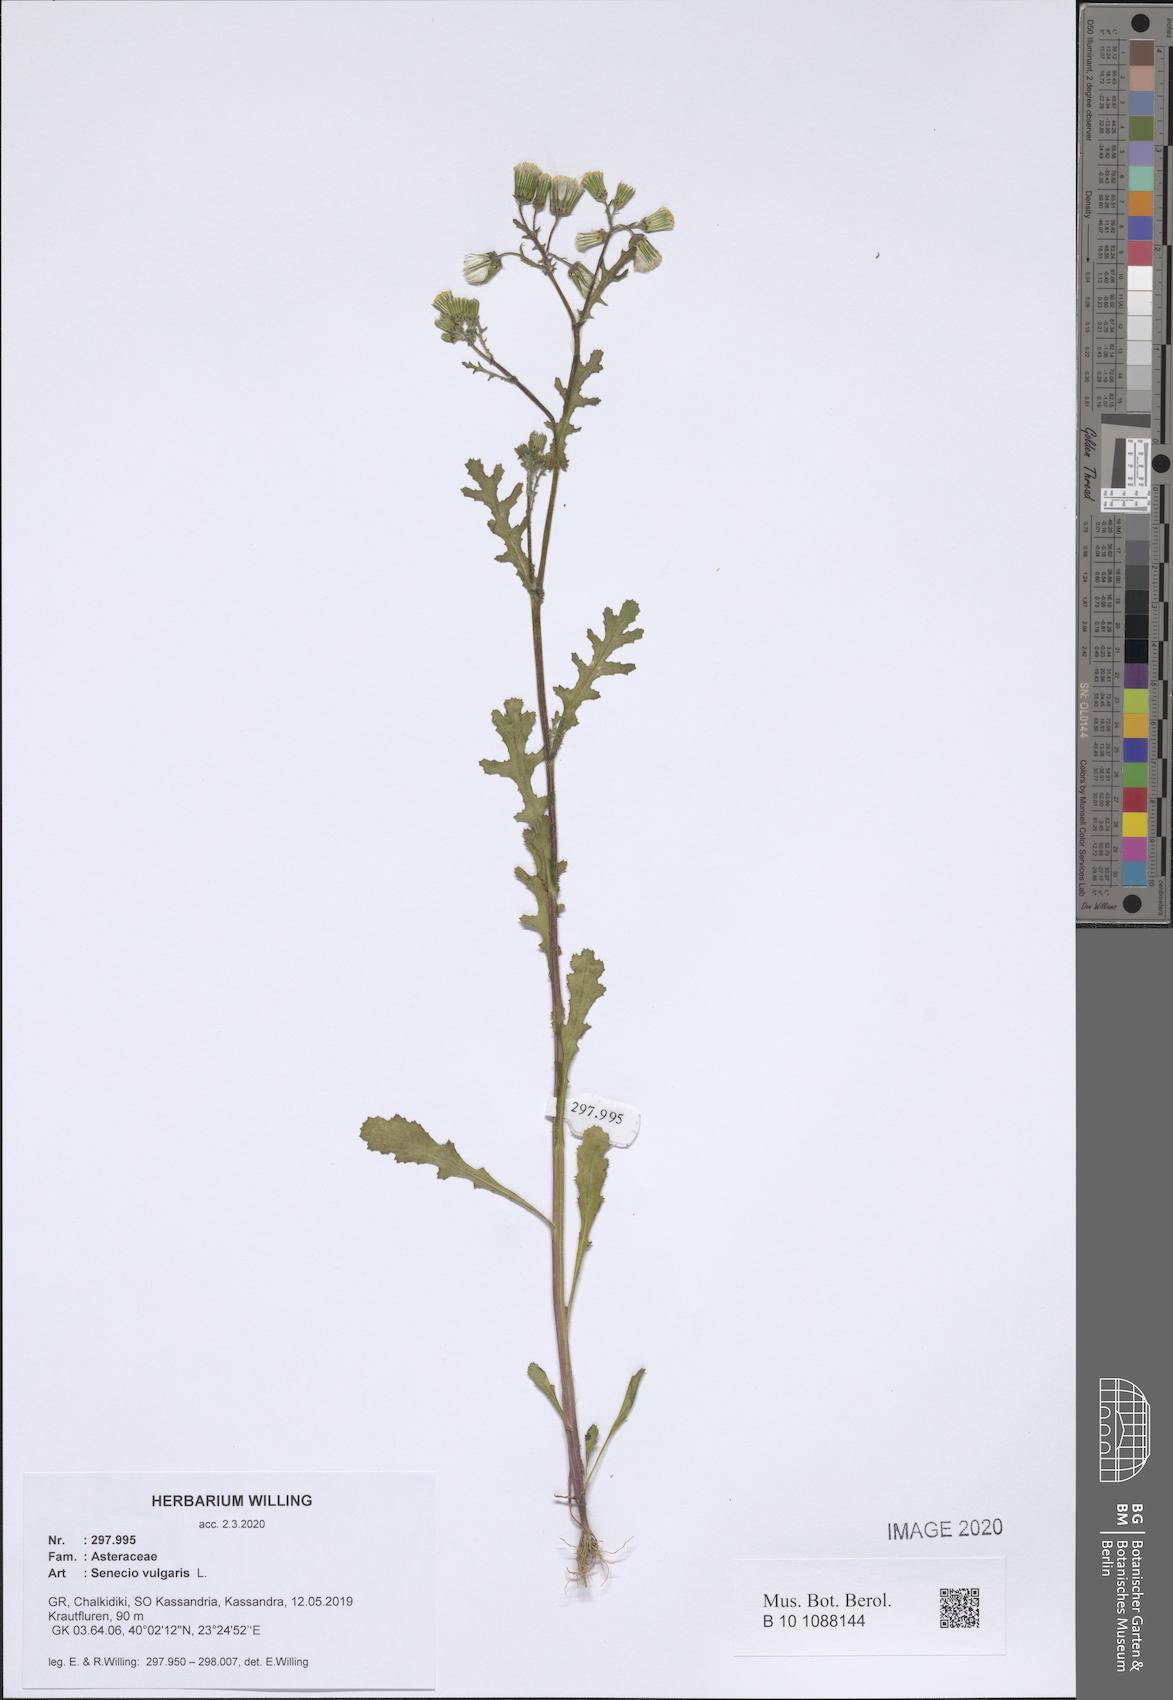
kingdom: Plantae
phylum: Tracheophyta
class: Magnoliopsida
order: Asterales
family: Asteraceae
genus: Senecio
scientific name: Senecio vulgaris
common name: Old-man-in-the-spring
